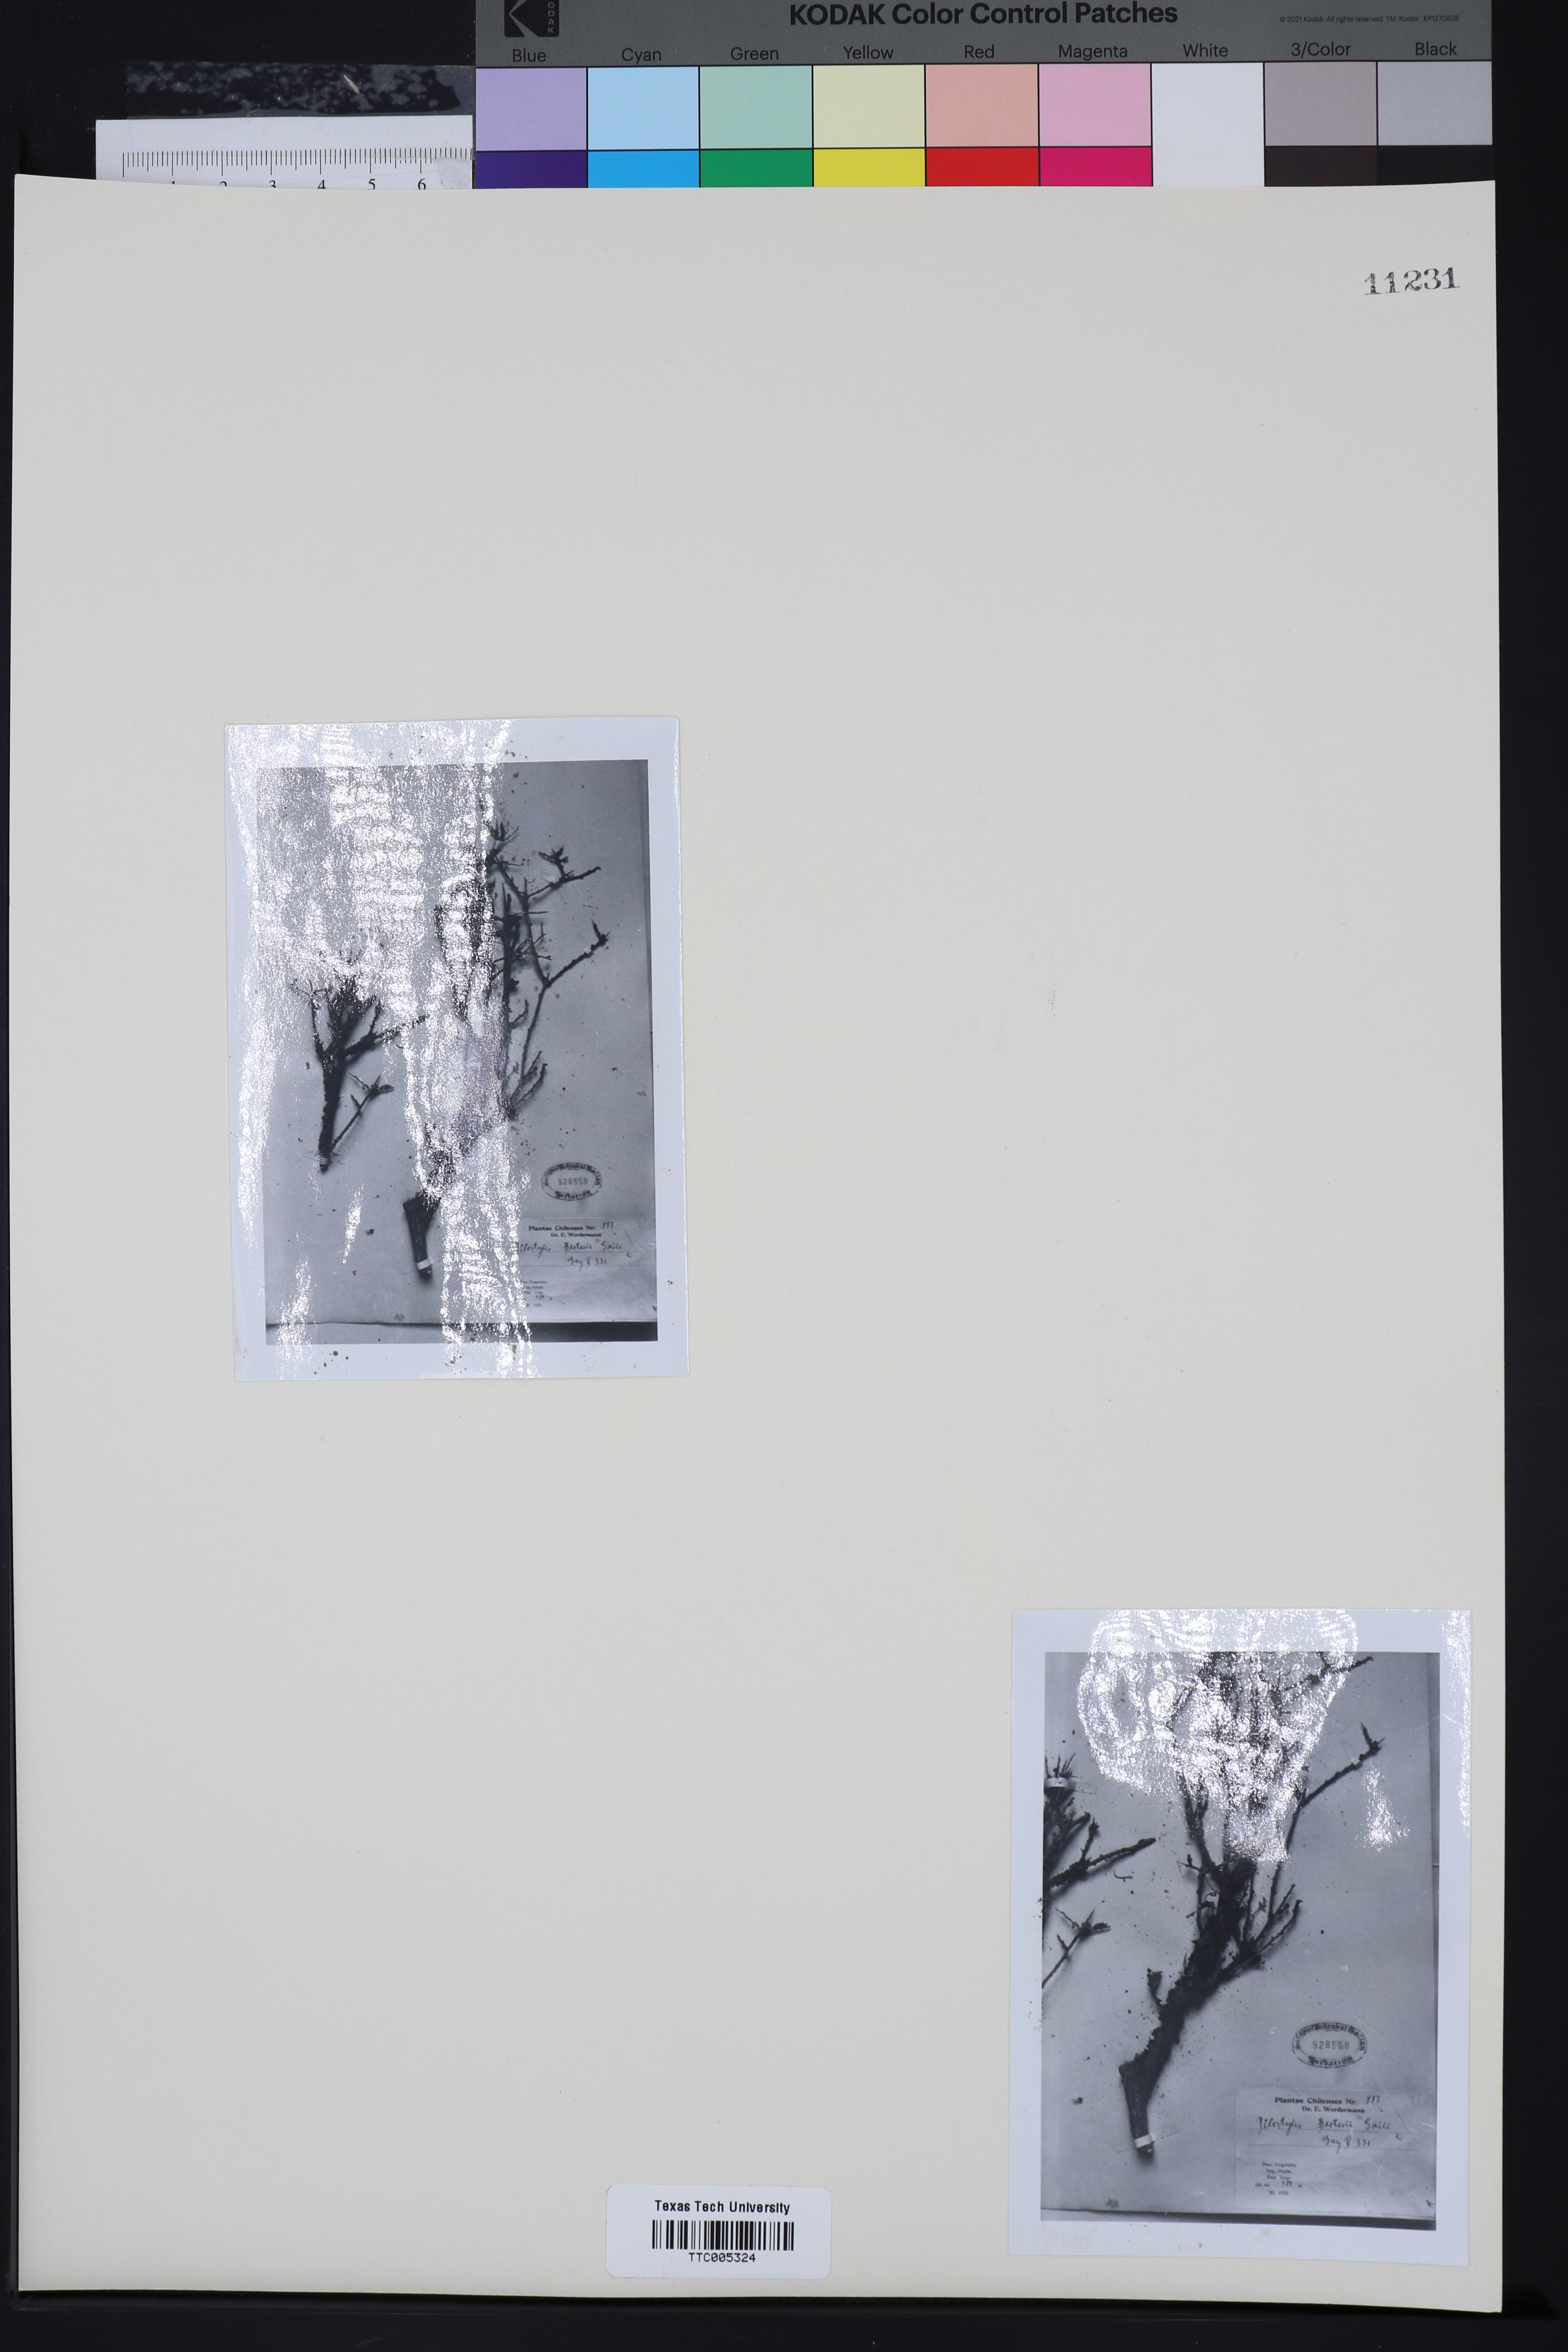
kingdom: Plantae
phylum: Tracheophyta
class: Magnoliopsida
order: Cucurbitales
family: Apodanthaceae
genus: Pilostyles
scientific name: Pilostyles berteroi
